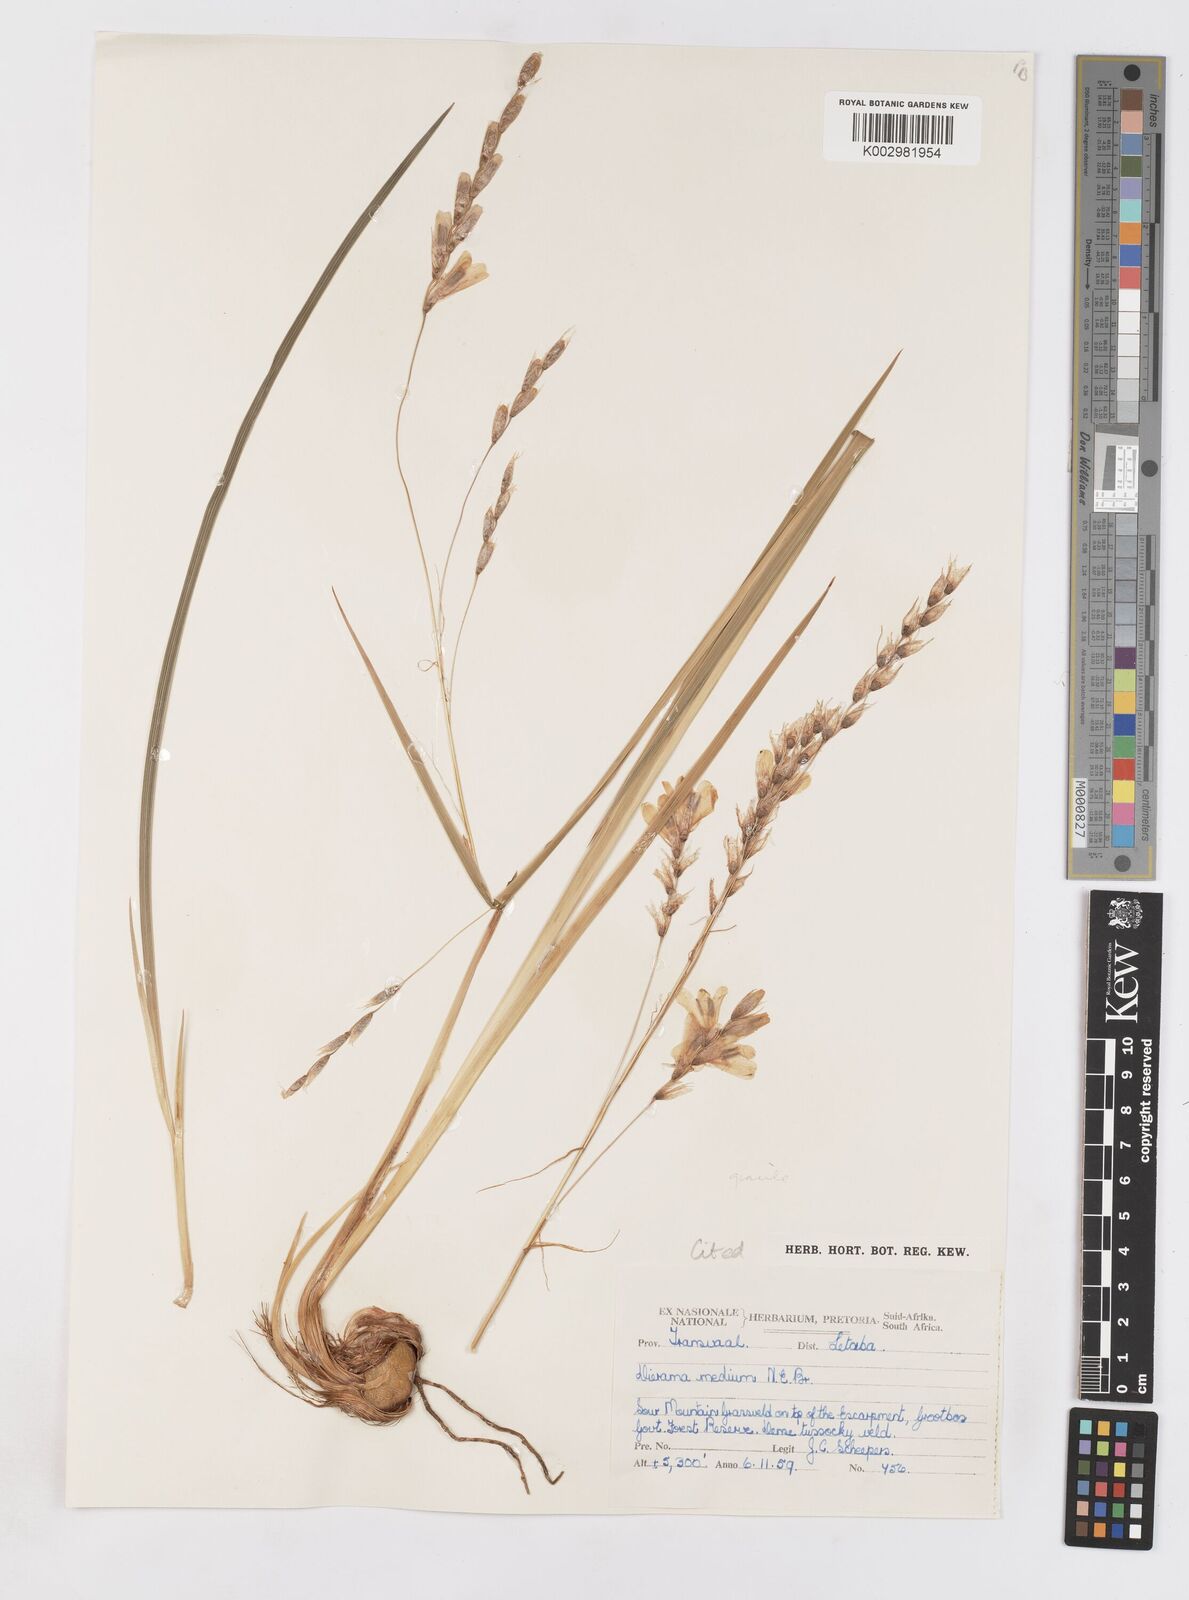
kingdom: Plantae
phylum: Tracheophyta
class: Liliopsida
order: Asparagales
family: Iridaceae
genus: Dierama
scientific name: Dierama gracile
